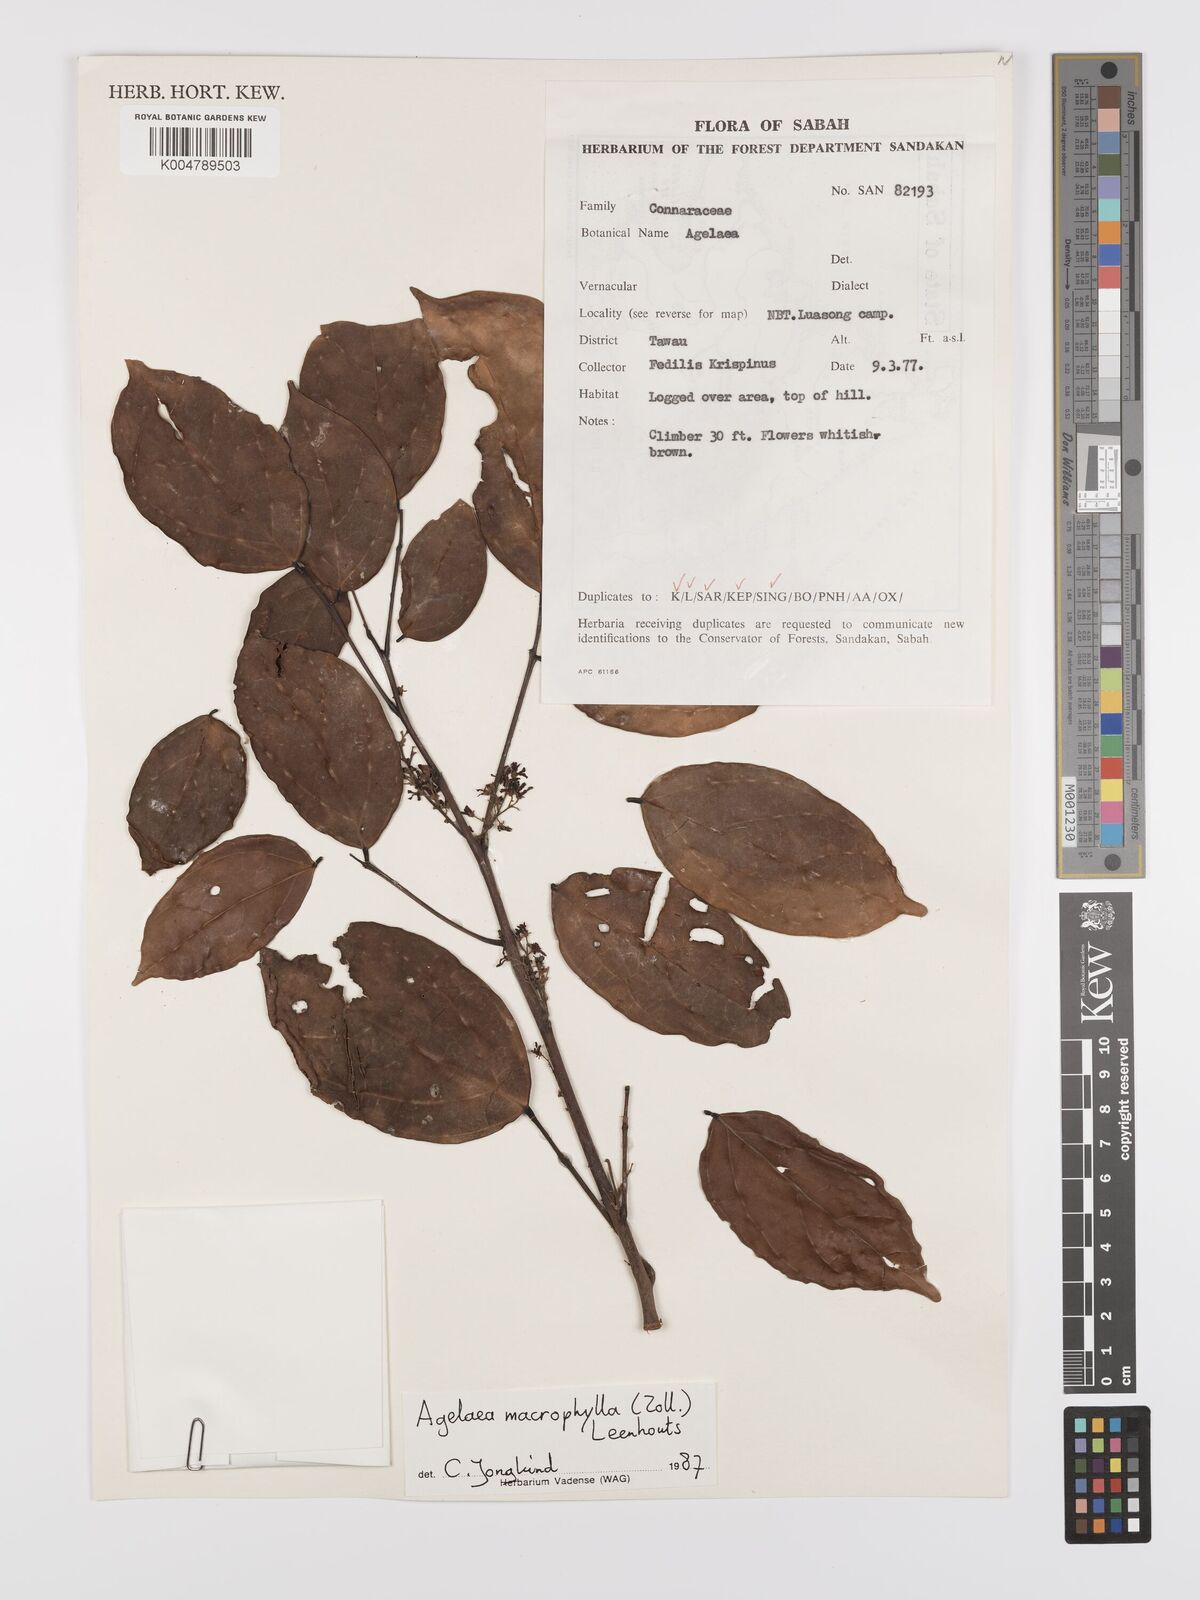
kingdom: Plantae
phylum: Tracheophyta
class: Magnoliopsida
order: Oxalidales
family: Connaraceae
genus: Agelaea
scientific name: Agelaea macrophylla
